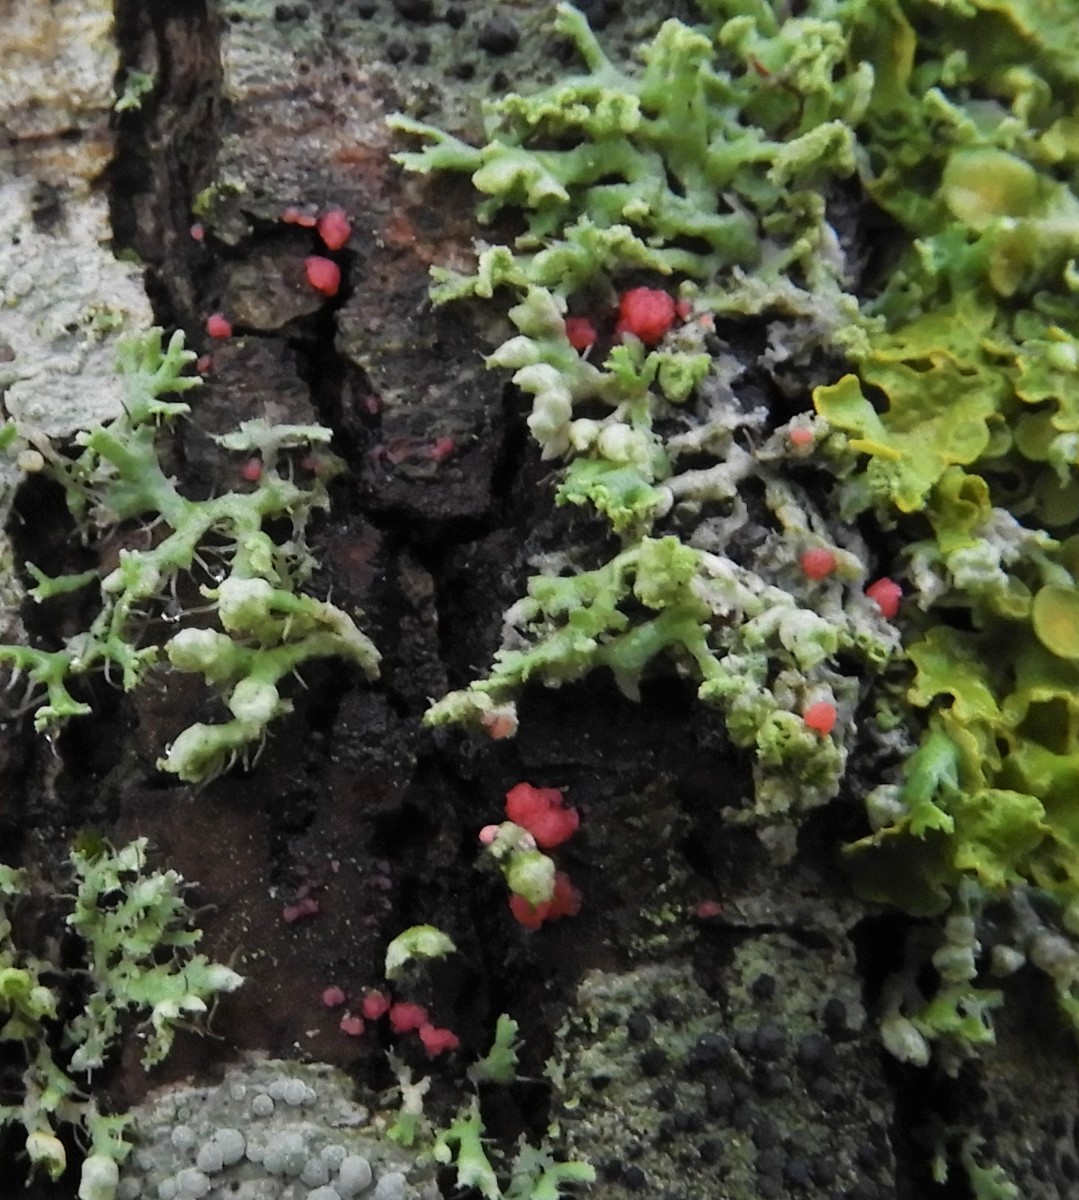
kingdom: Fungi
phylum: Ascomycota
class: Sordariomycetes
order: Hypocreales
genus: Illosporiopsis
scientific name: Illosporiopsis christiansenii
